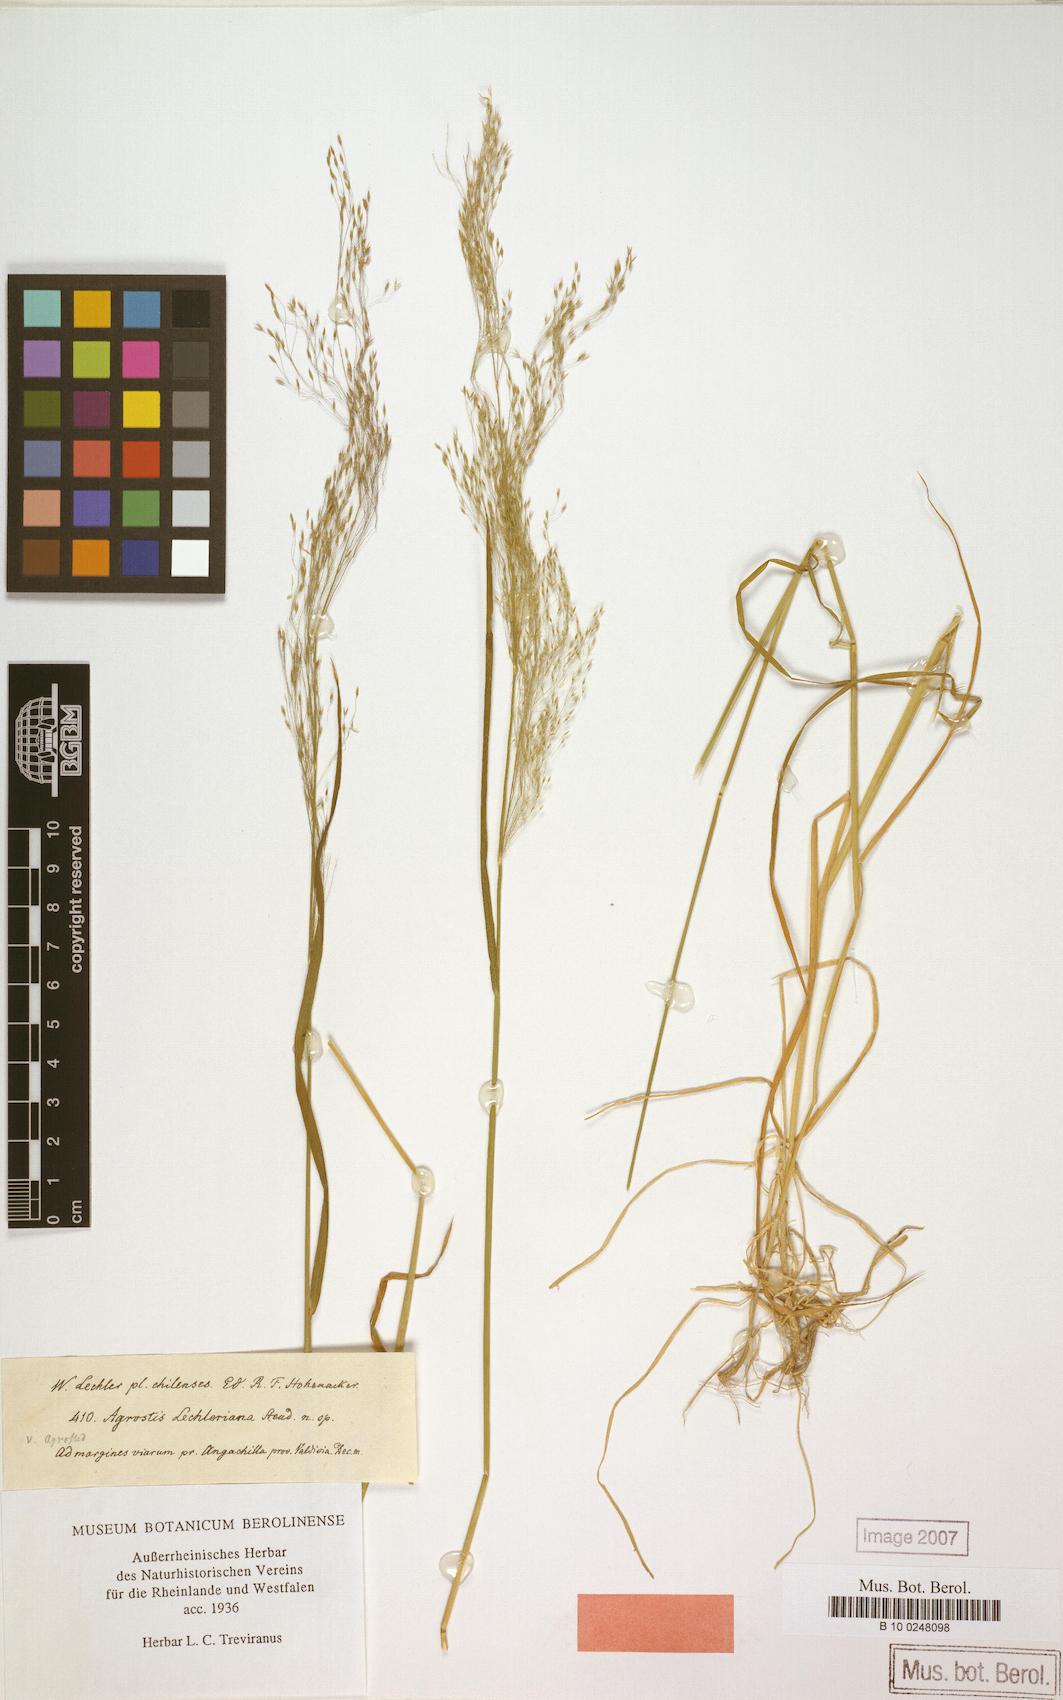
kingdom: Plantae
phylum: Tracheophyta
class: Liliopsida
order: Poales
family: Poaceae
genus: Agrostis
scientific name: Agrostis leptotricha
